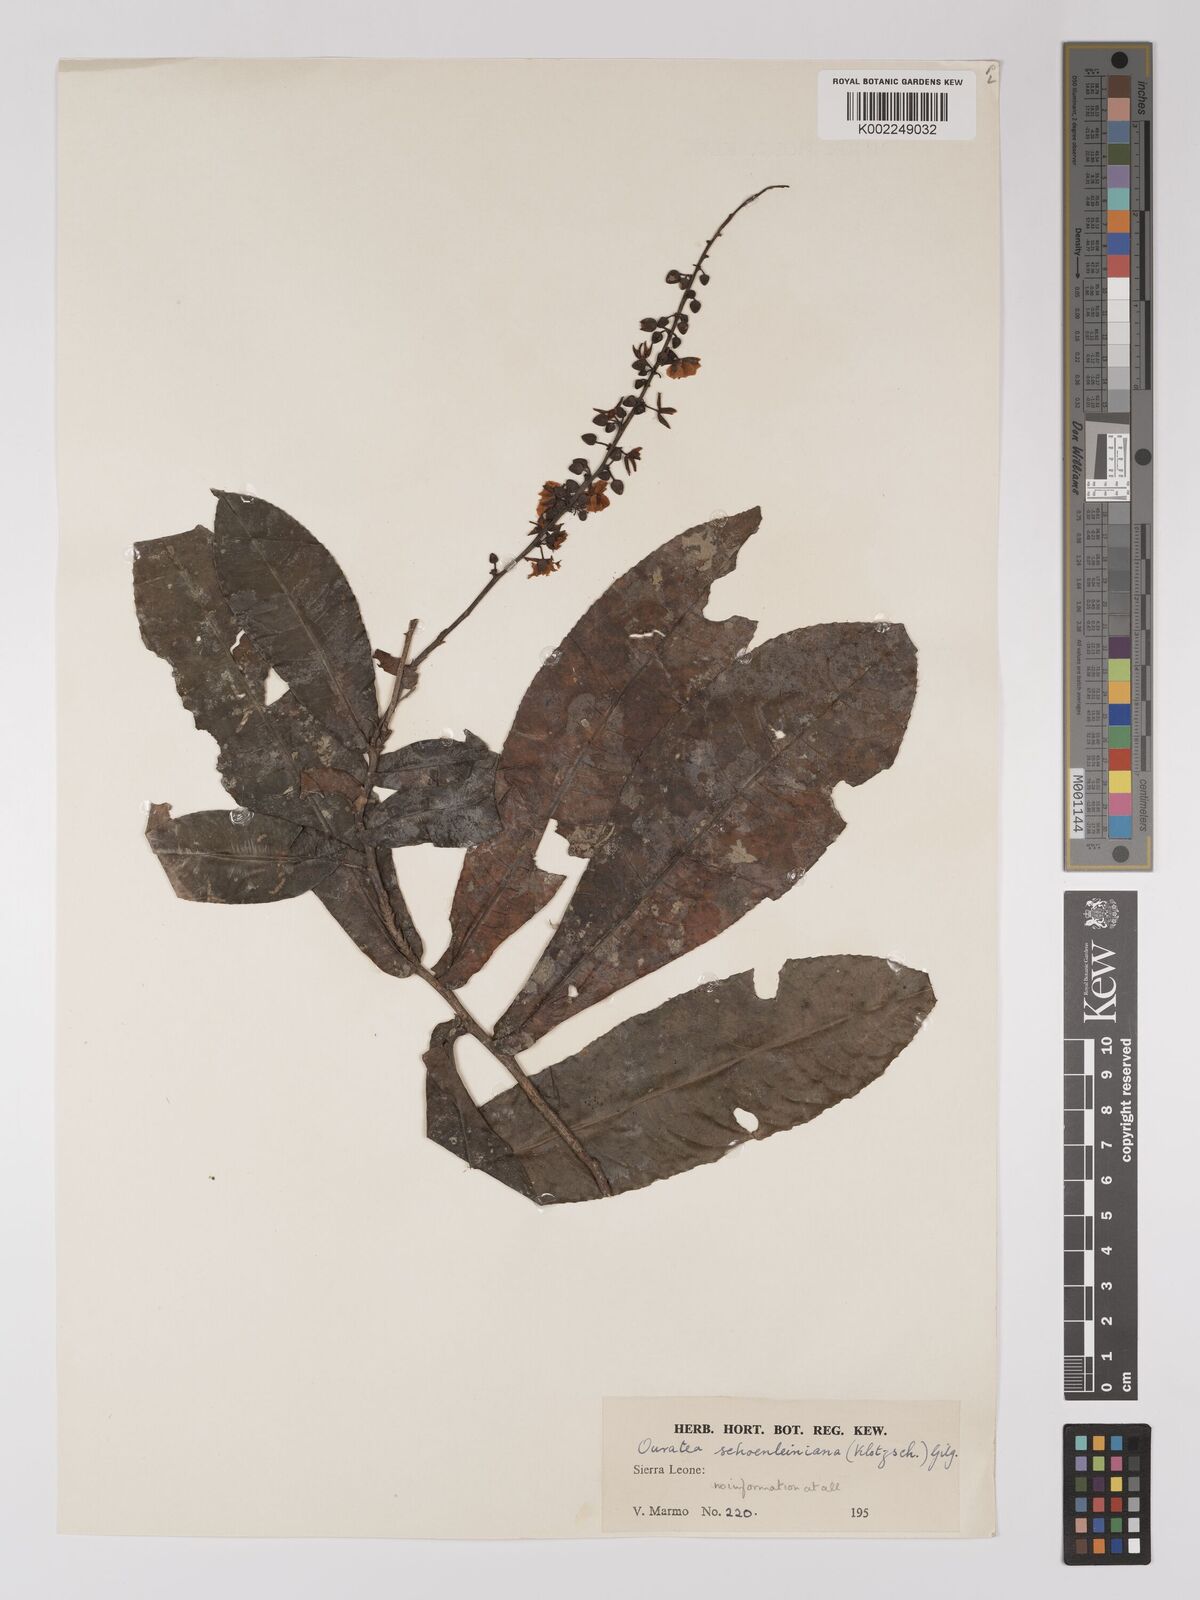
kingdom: Plantae
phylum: Tracheophyta
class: Magnoliopsida
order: Malpighiales
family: Ochnaceae
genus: Campylospermum
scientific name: Campylospermum schoenleinianum
